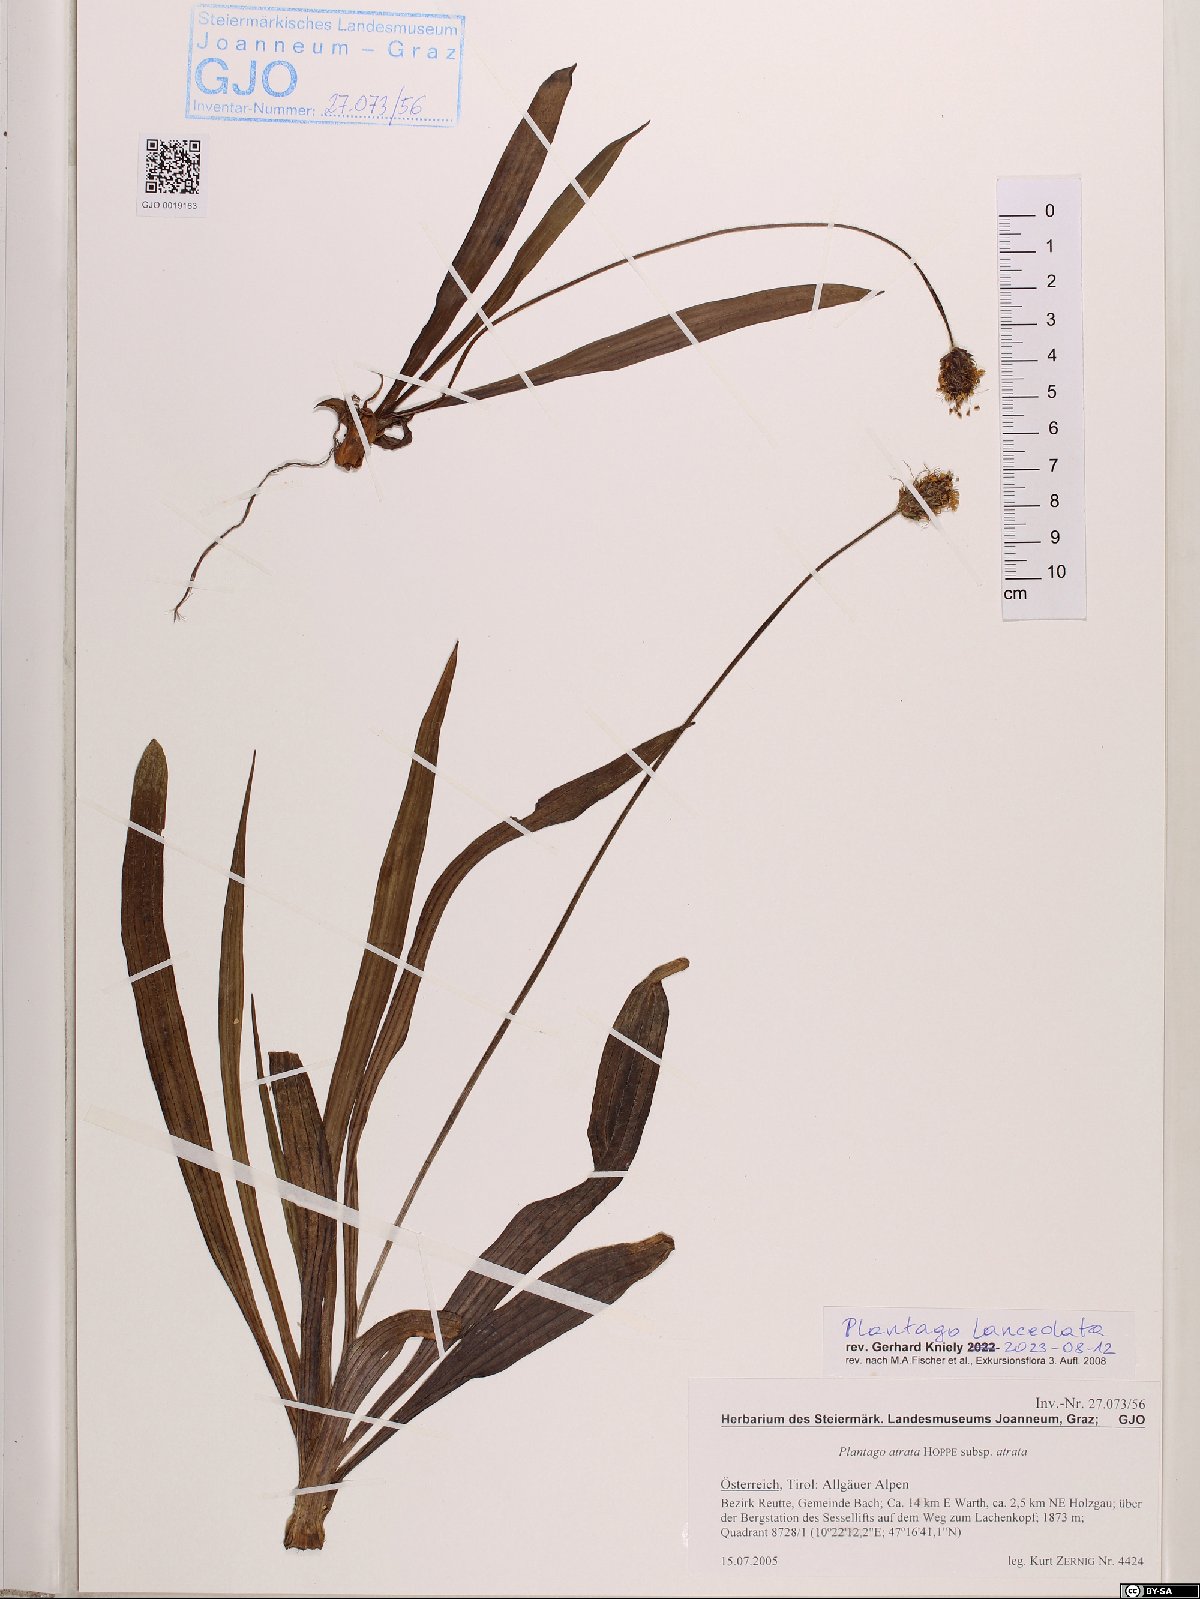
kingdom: Plantae
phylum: Tracheophyta
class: Magnoliopsida
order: Lamiales
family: Plantaginaceae
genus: Plantago
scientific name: Plantago lanceolata
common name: Ribwort plantain
